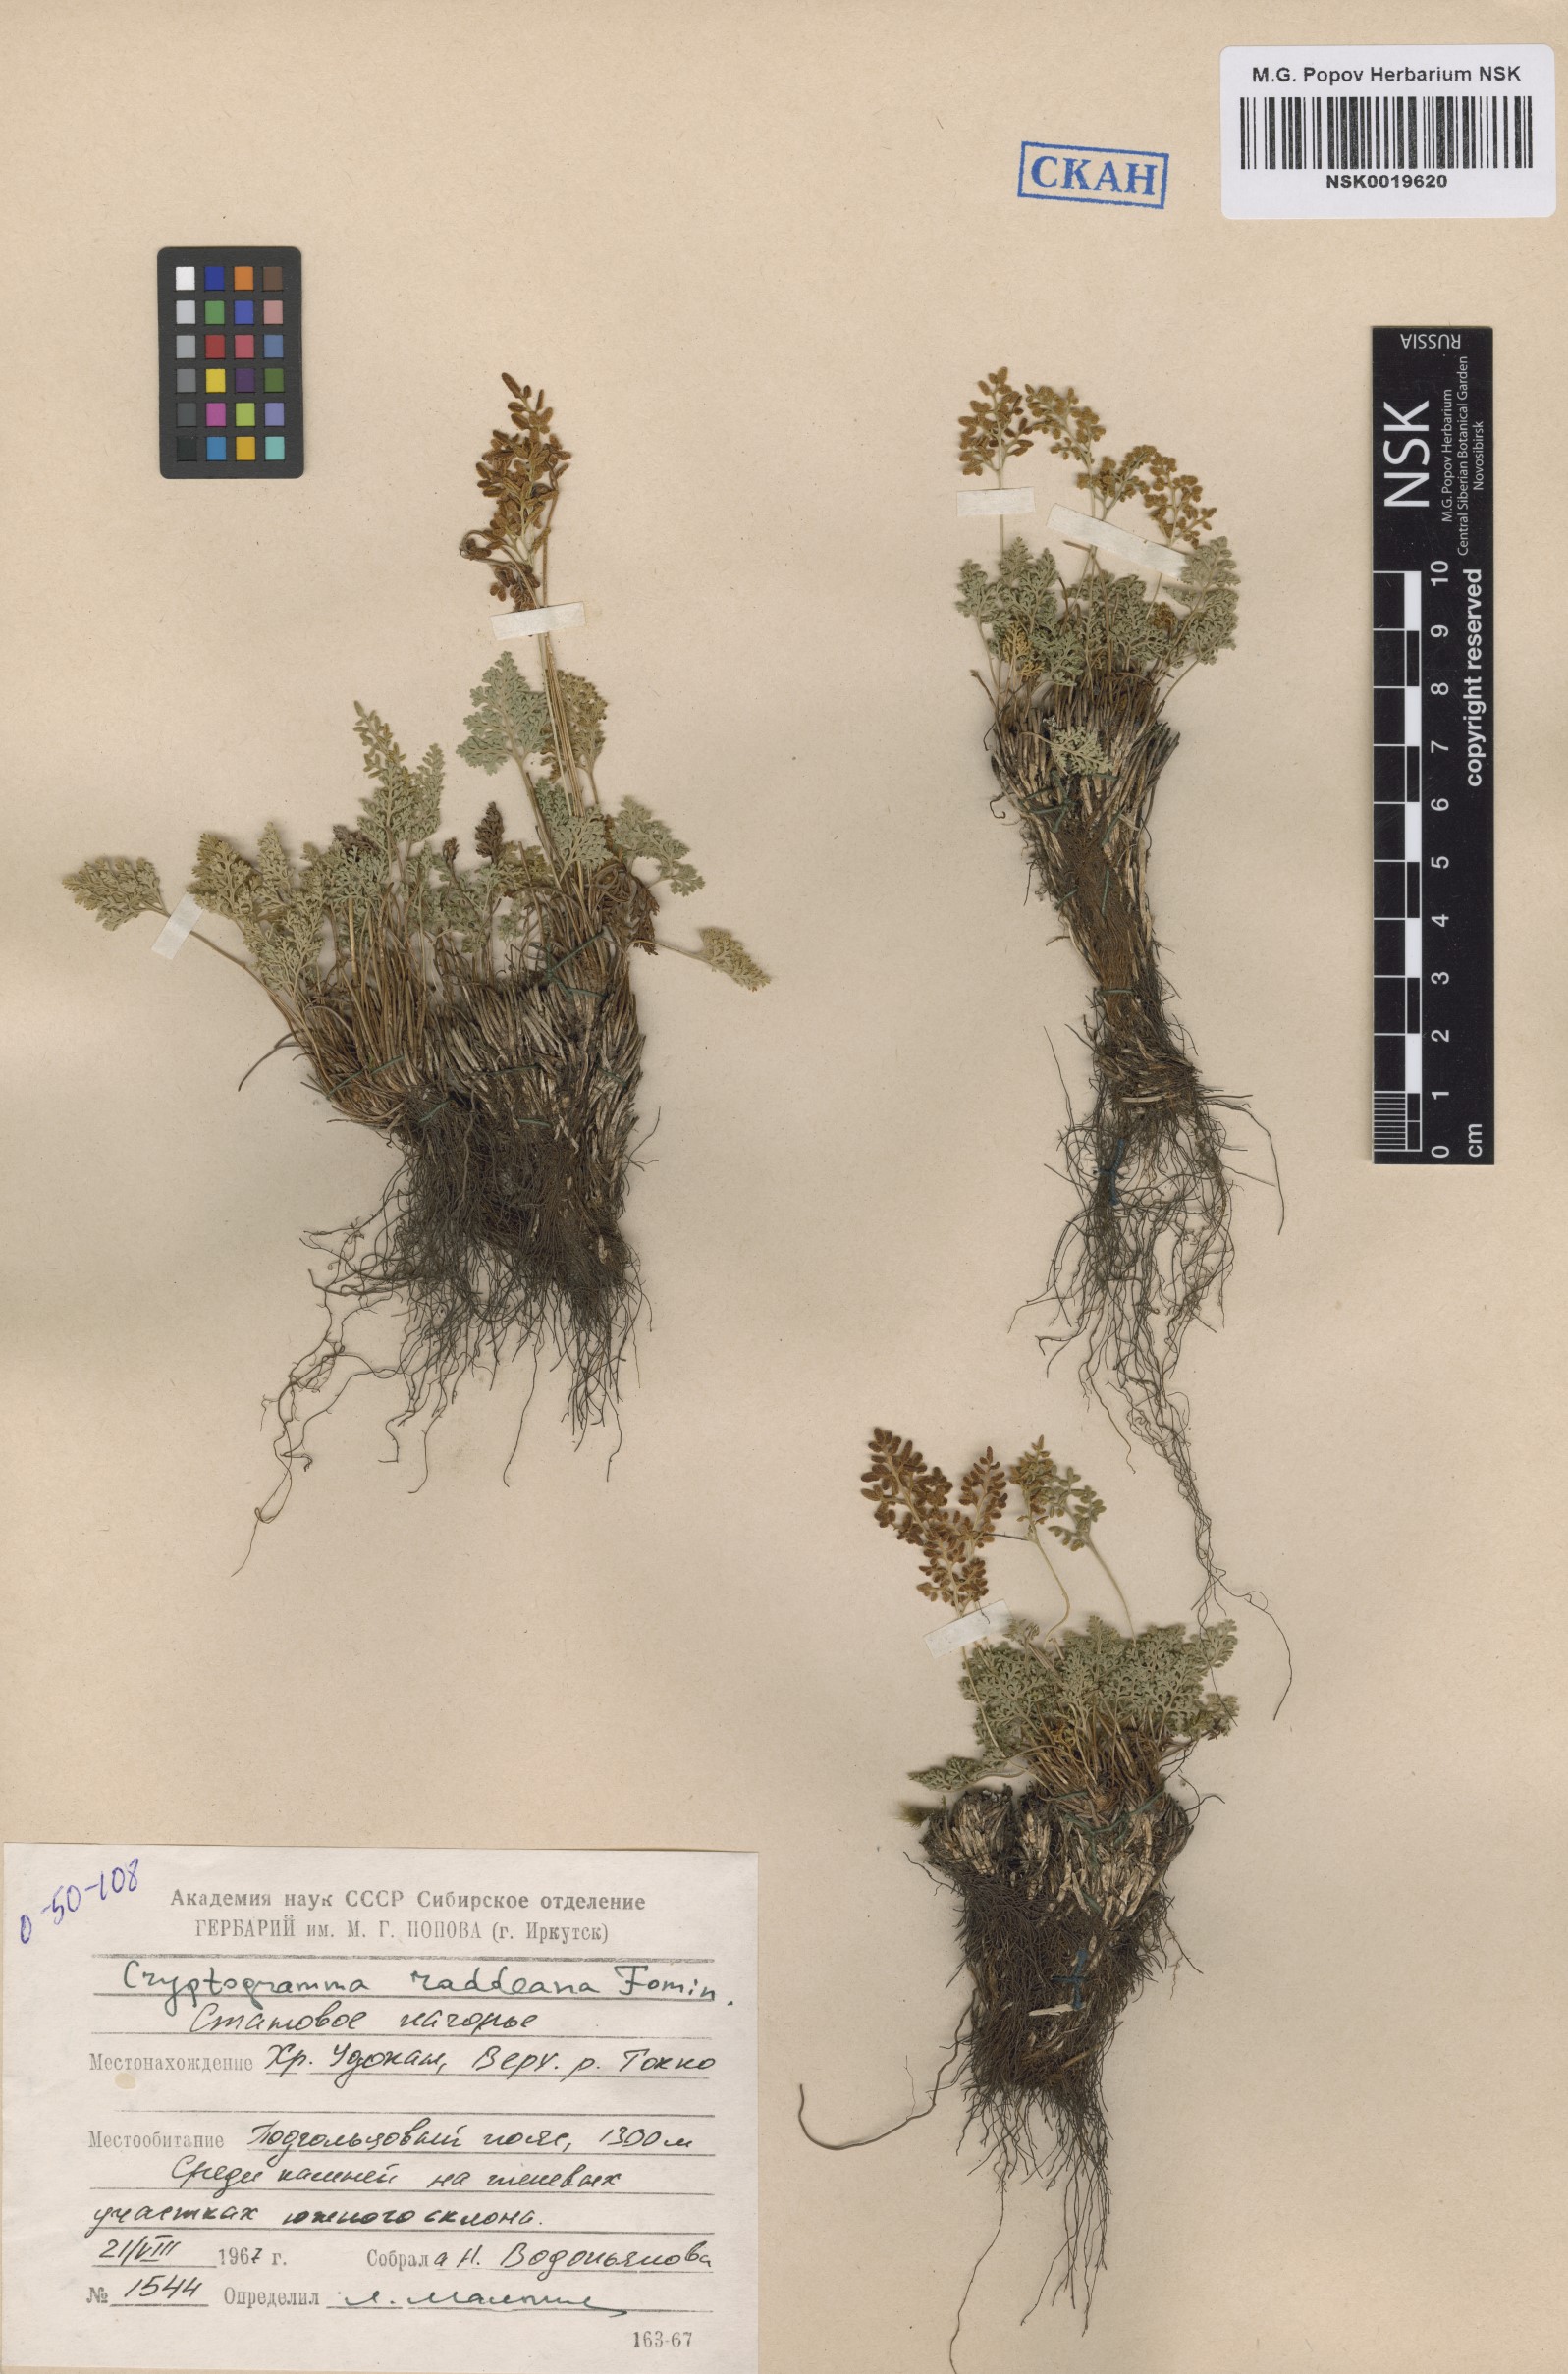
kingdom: Plantae
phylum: Tracheophyta
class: Polypodiopsida
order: Polypodiales
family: Pteridaceae
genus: Cryptogramma
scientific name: Cryptogramma brunoniana
